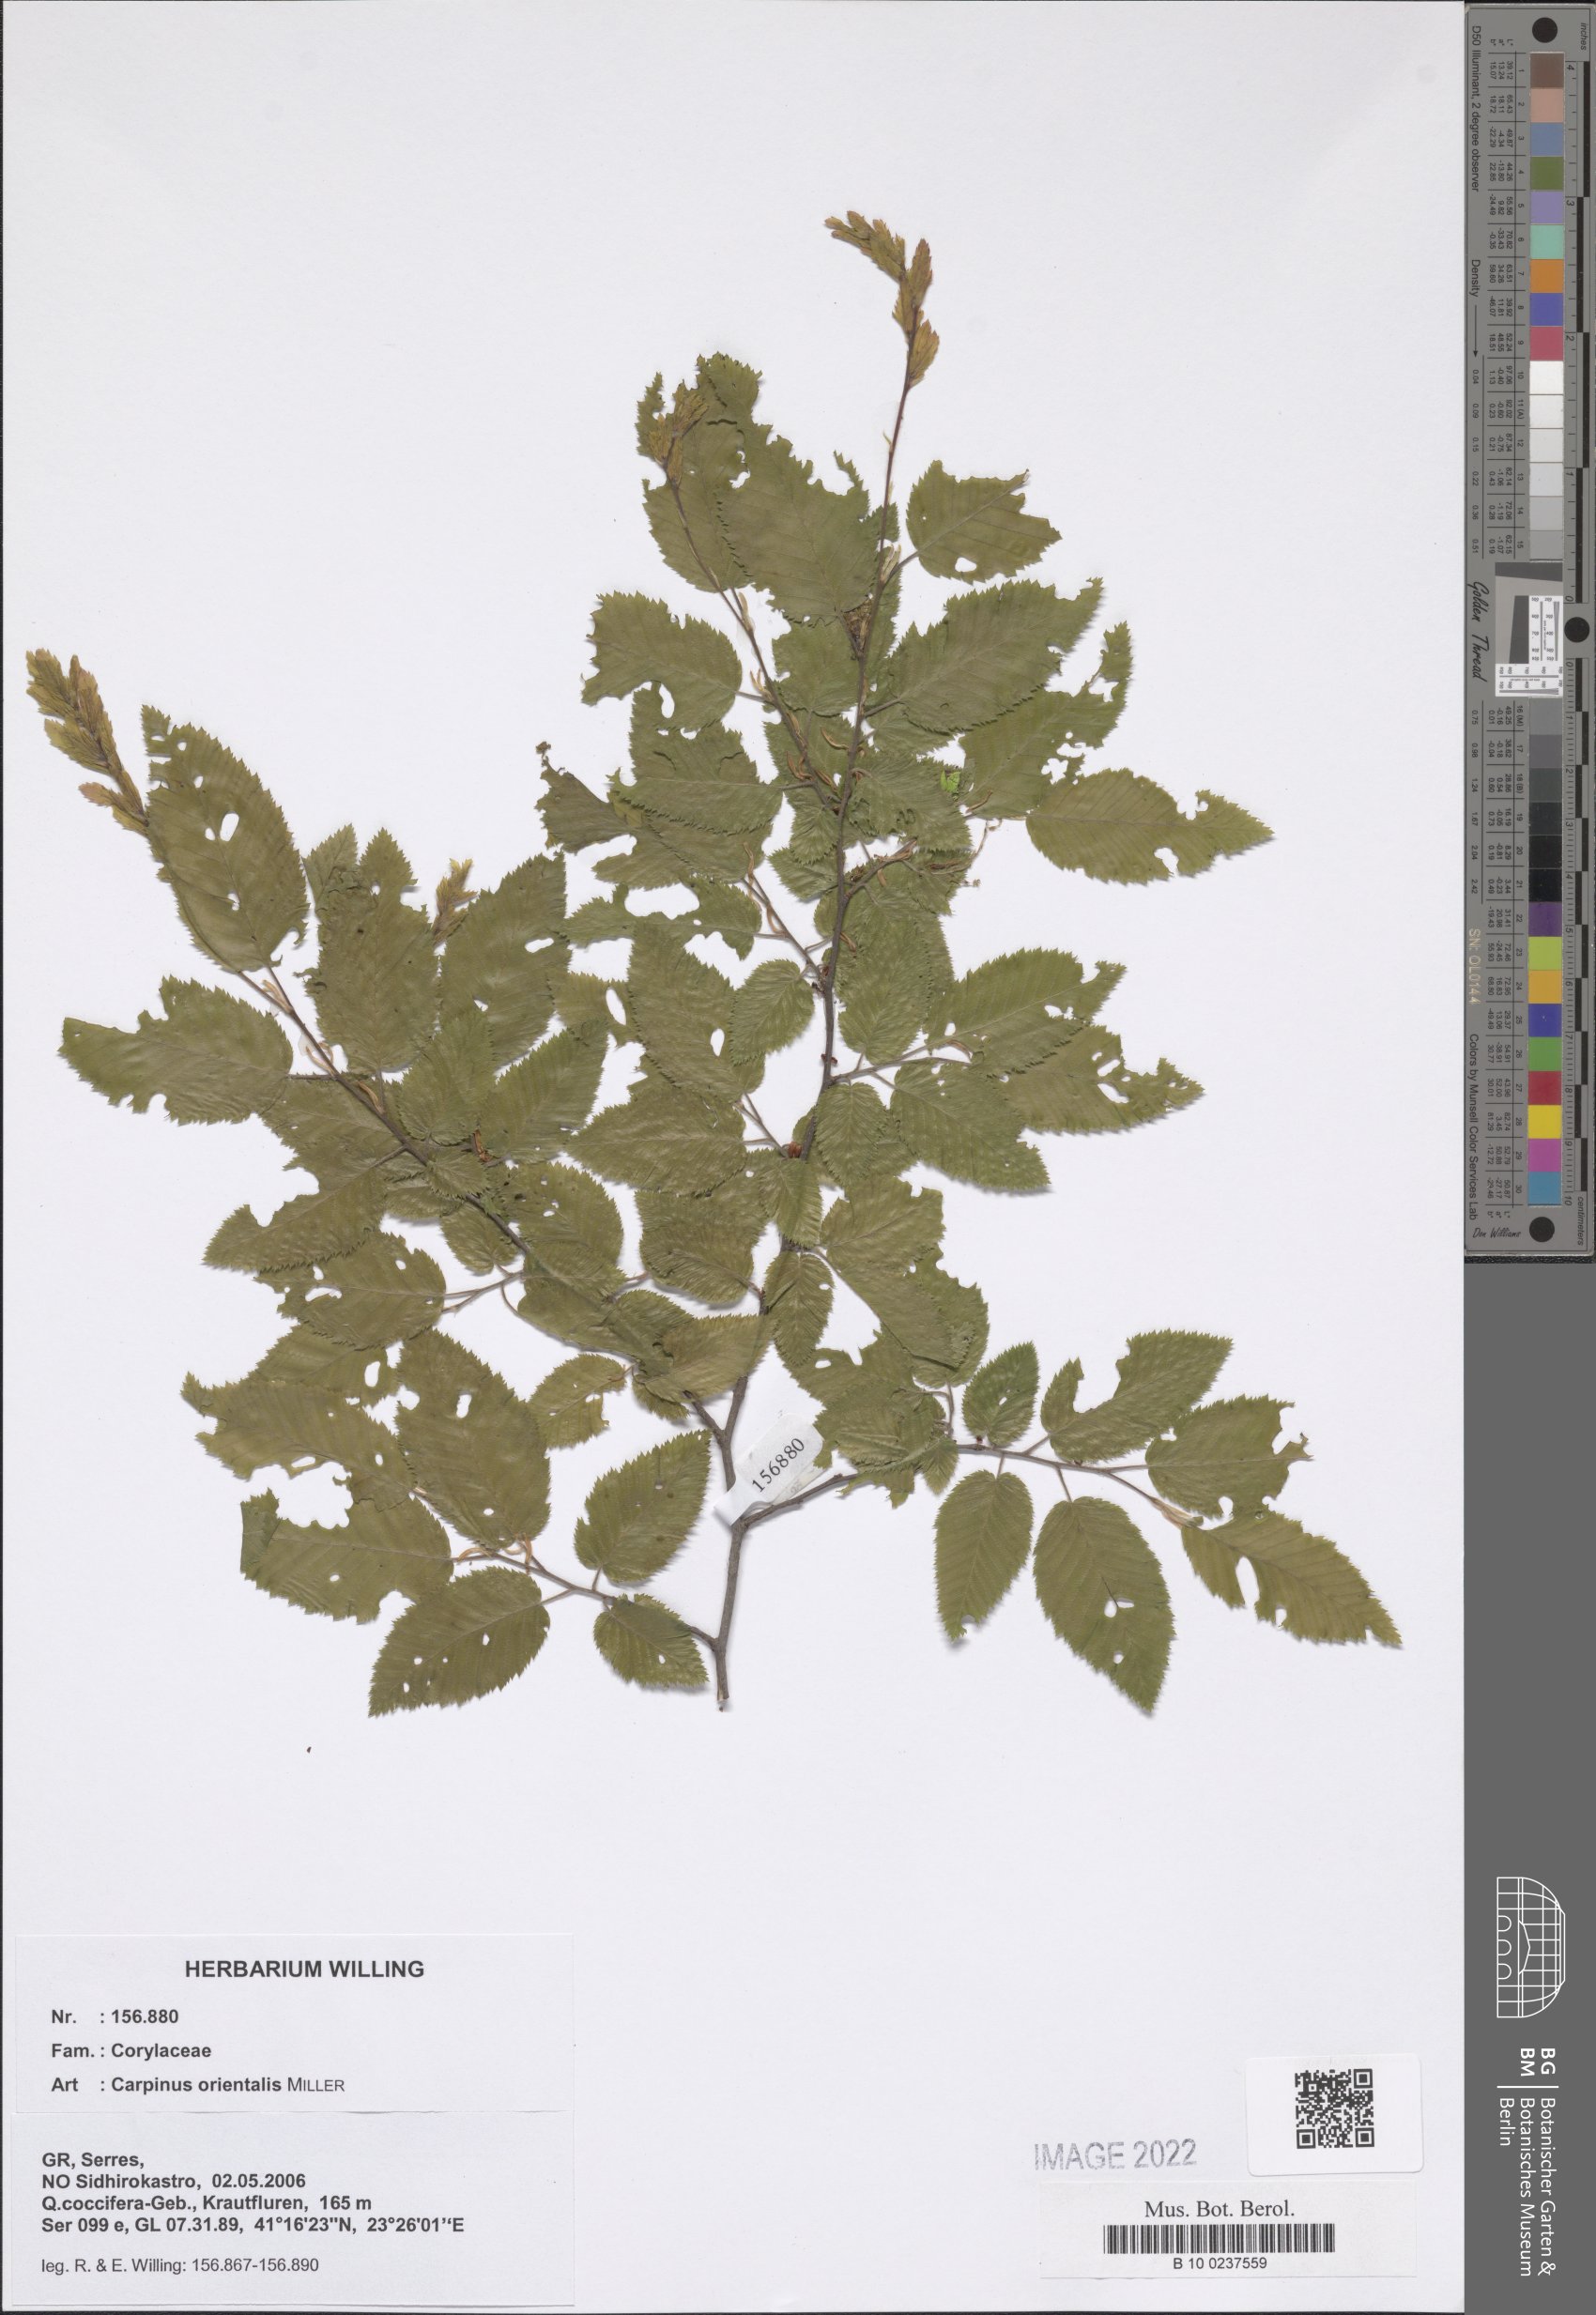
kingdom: Plantae
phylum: Tracheophyta
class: Magnoliopsida
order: Fagales
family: Betulaceae
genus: Carpinus
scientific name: Carpinus orientalis
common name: Eastern hornbeam
